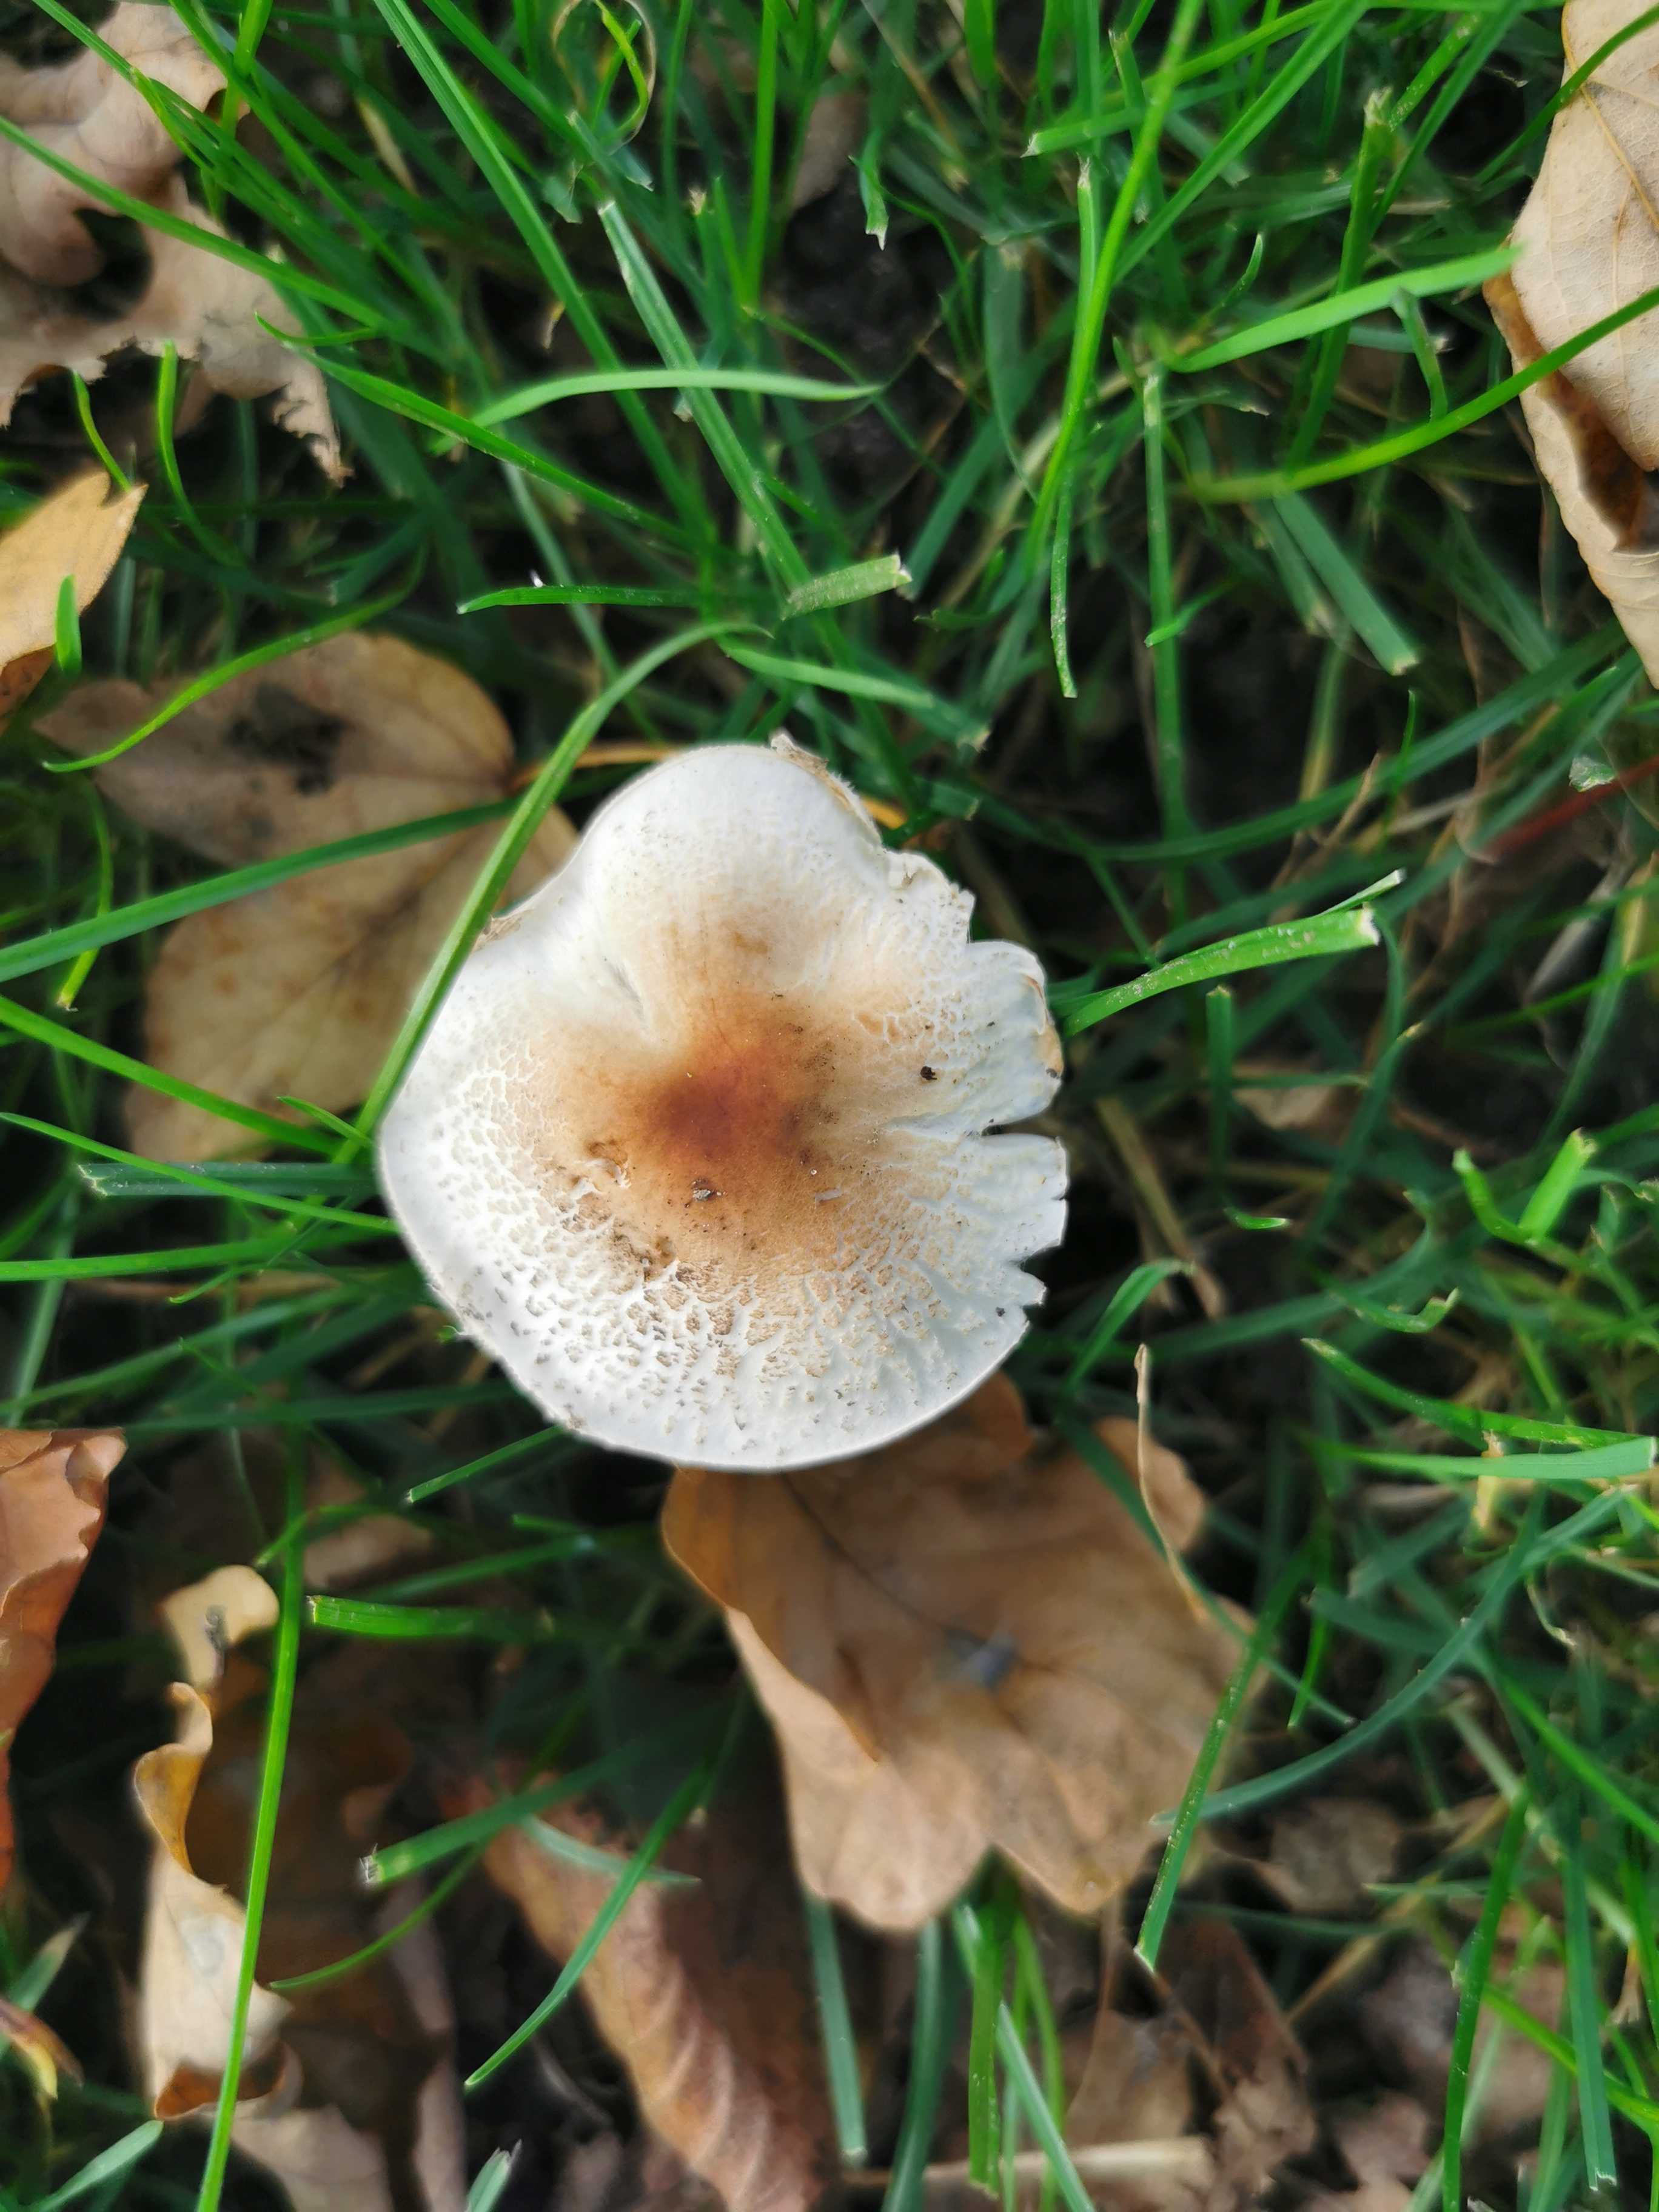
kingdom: Fungi
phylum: Basidiomycota
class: Agaricomycetes
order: Agaricales
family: Agaricaceae
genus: Lepiota
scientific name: Lepiota cristata
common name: stinkende parasolhat
